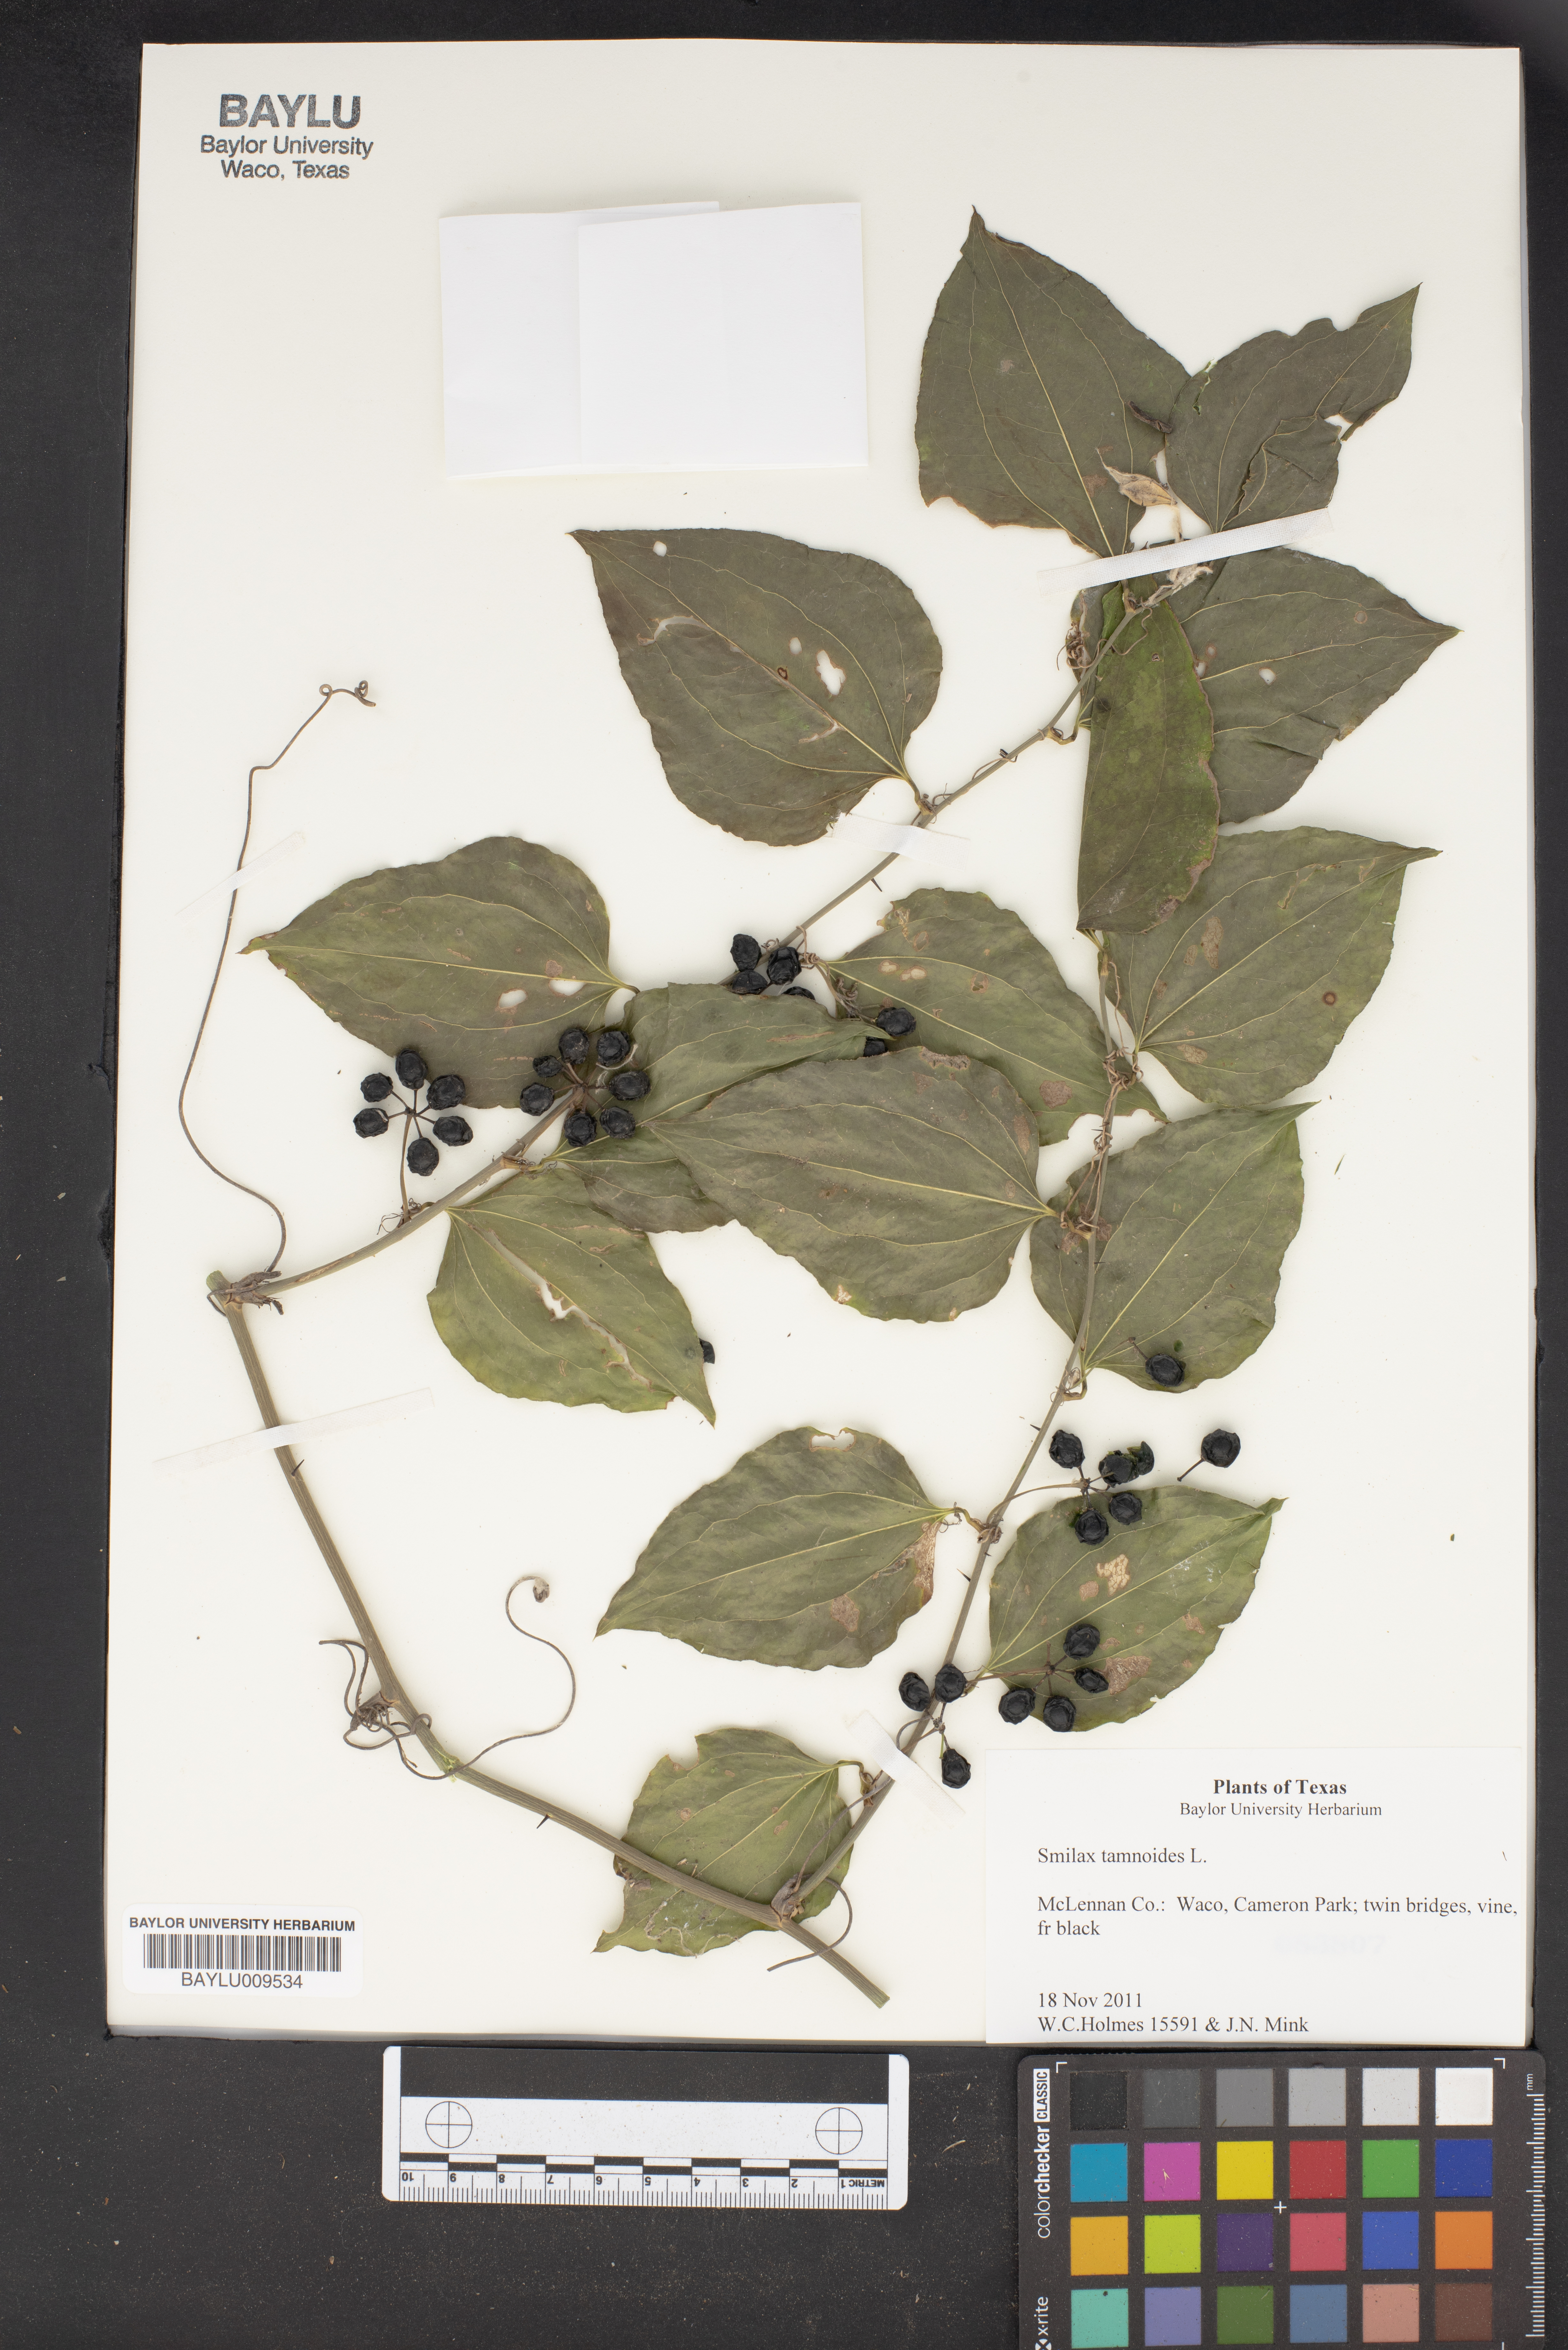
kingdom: Plantae
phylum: Tracheophyta
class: Liliopsida
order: Liliales
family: Smilacaceae
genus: Smilax
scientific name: Smilax tamnoides
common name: Hellfetter
